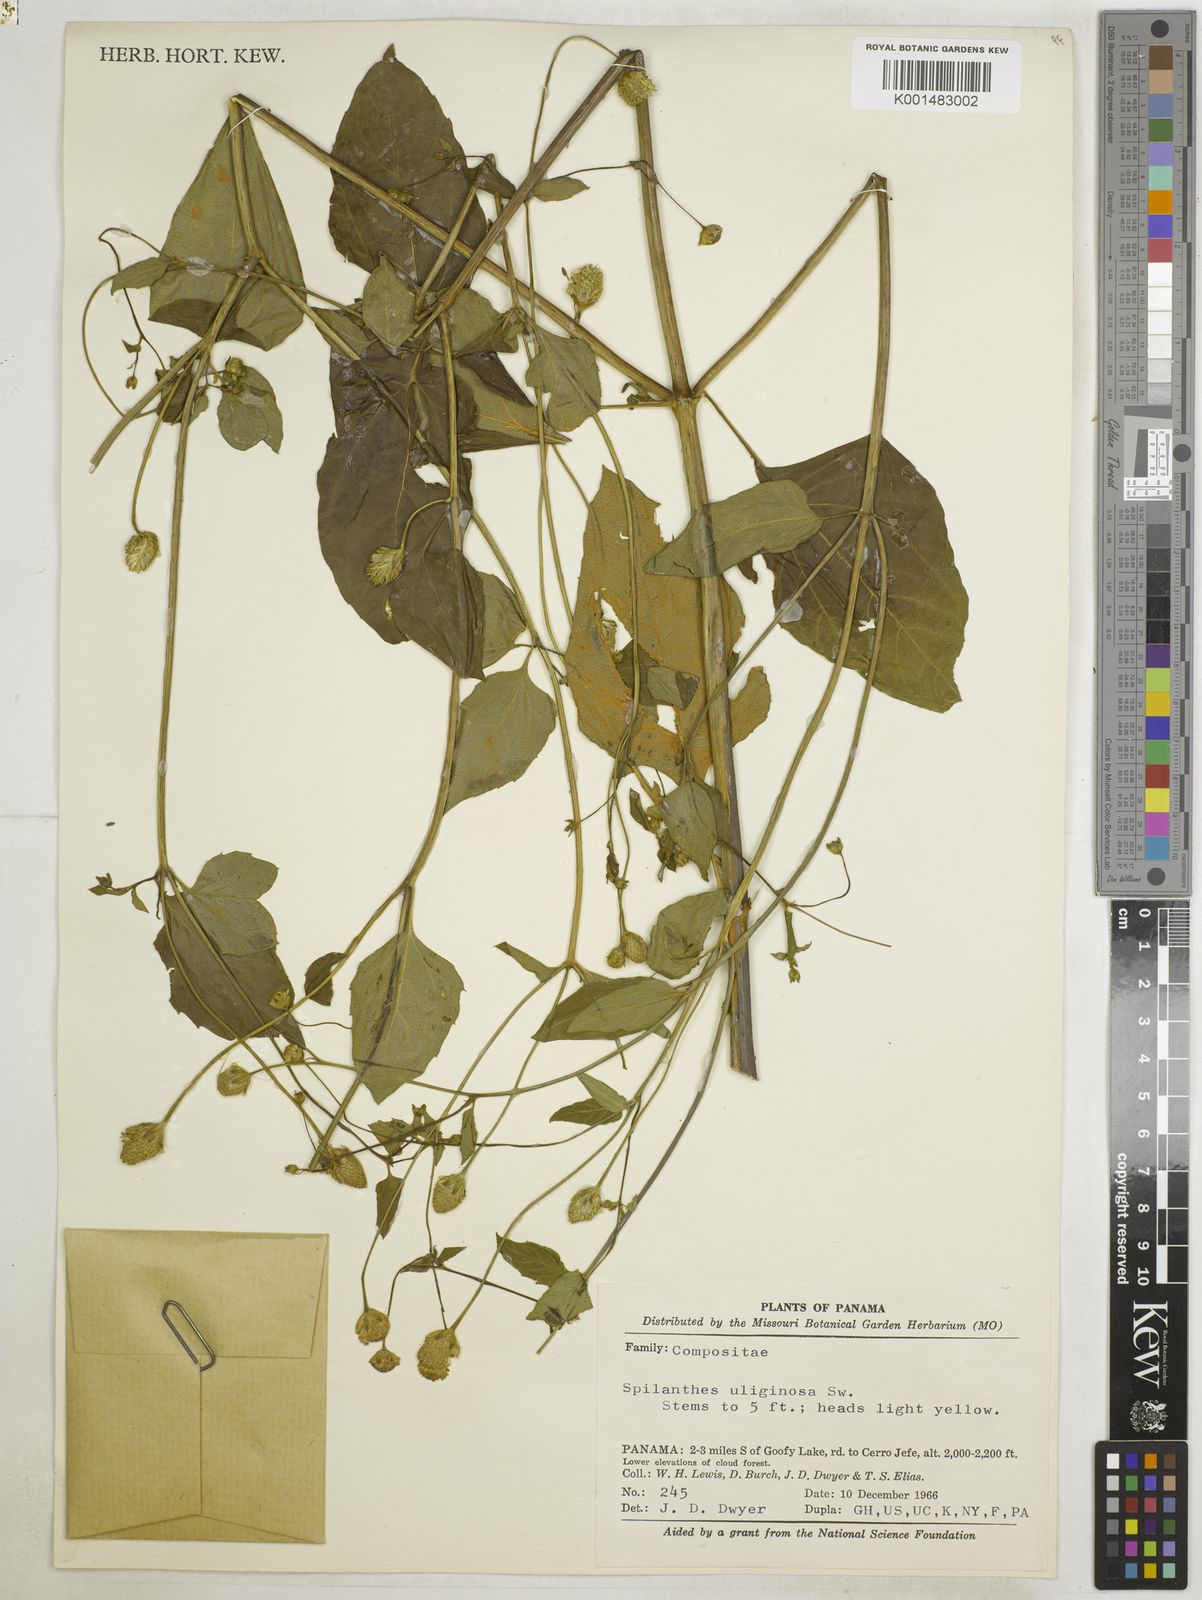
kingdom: Plantae
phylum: Tracheophyta
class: Magnoliopsida
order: Asterales
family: Asteraceae
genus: Acmella
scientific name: Acmella uliginosa
